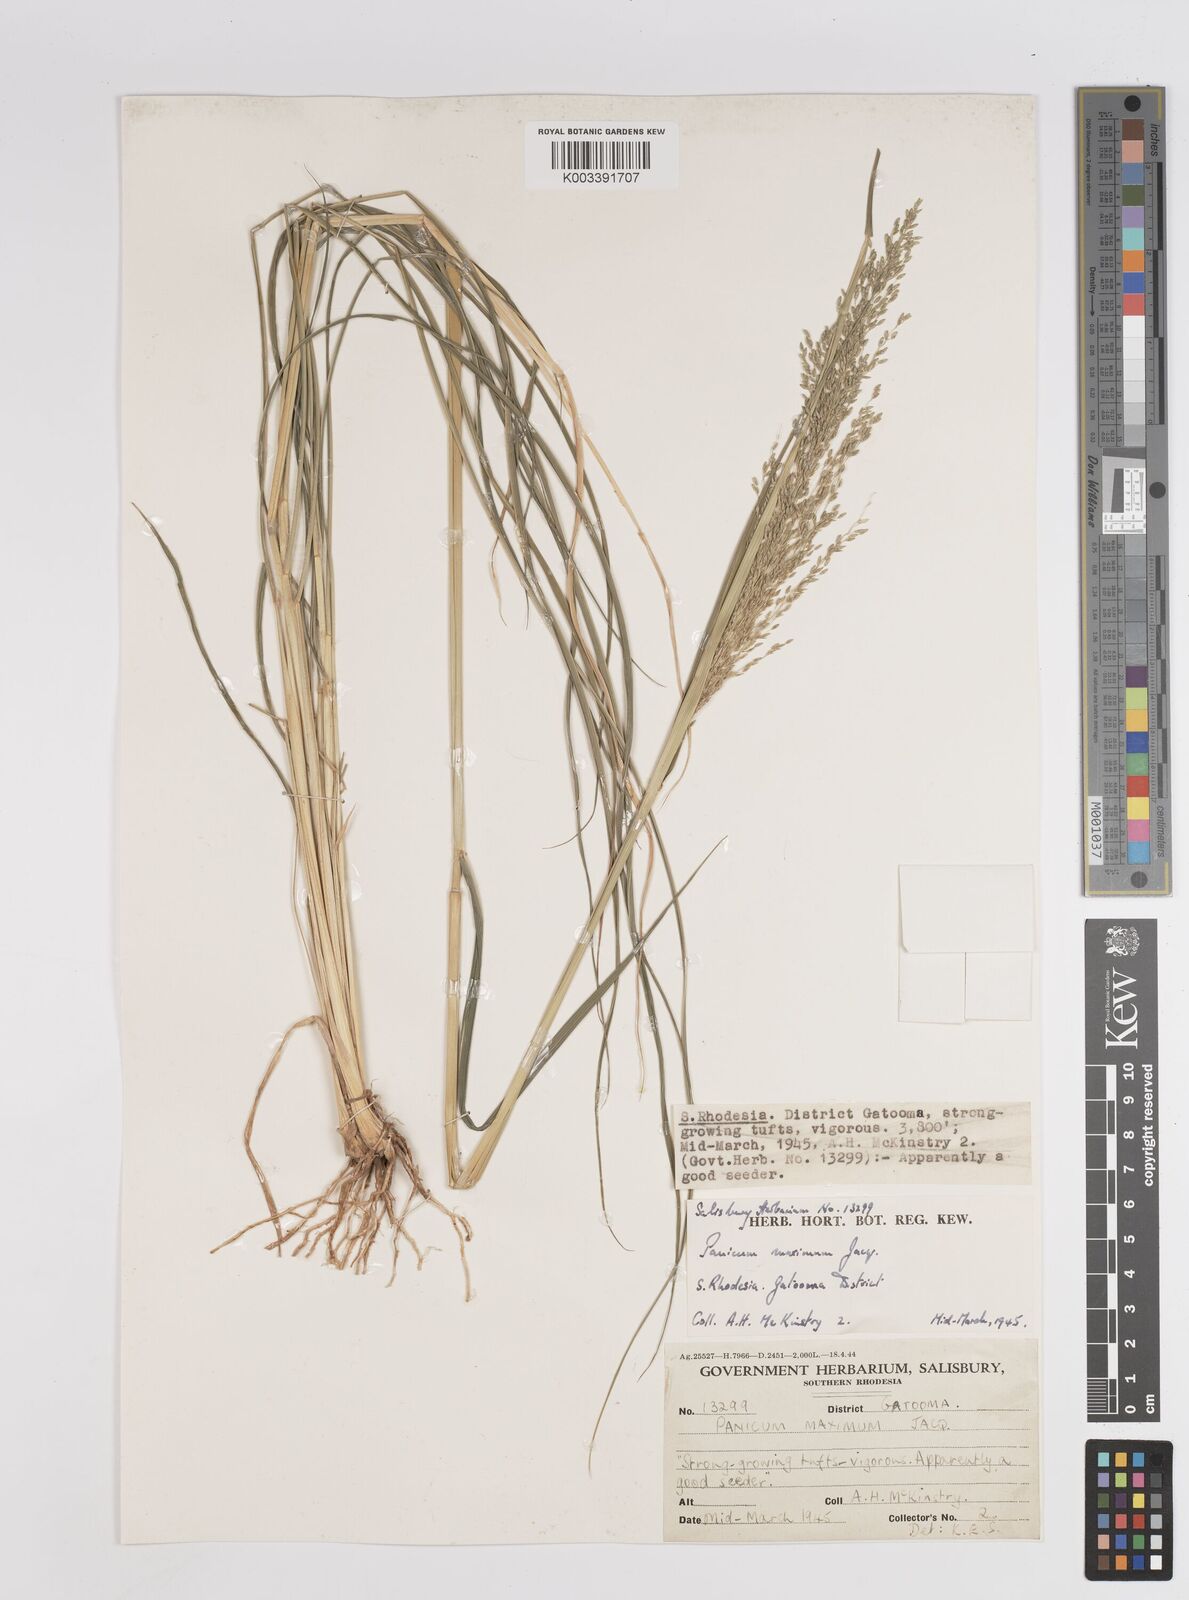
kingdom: Plantae
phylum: Tracheophyta
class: Liliopsida
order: Poales
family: Poaceae
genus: Megathyrsus
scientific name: Megathyrsus maximus
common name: Guineagrass
